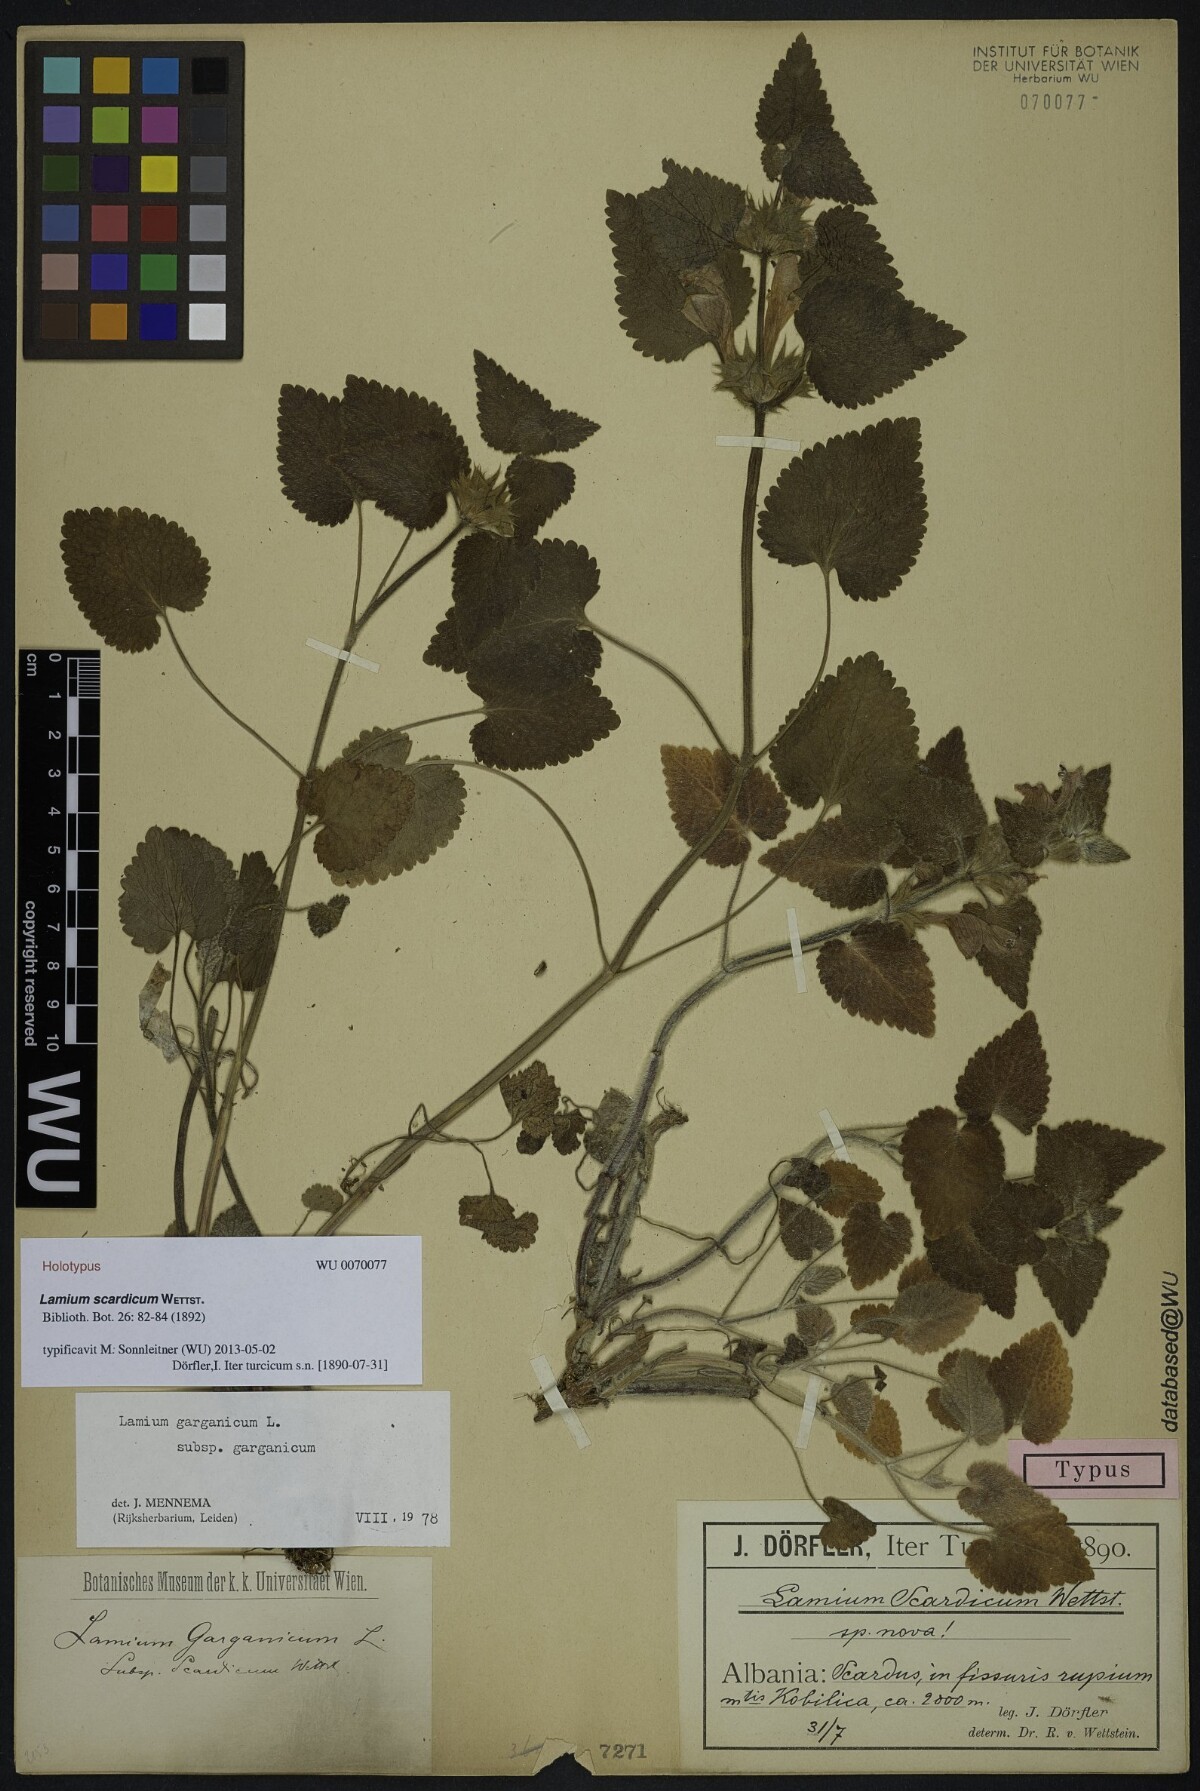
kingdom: Plantae
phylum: Tracheophyta
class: Magnoliopsida
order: Lamiales
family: Lamiaceae
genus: Lamium
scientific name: Lamium garganicum
